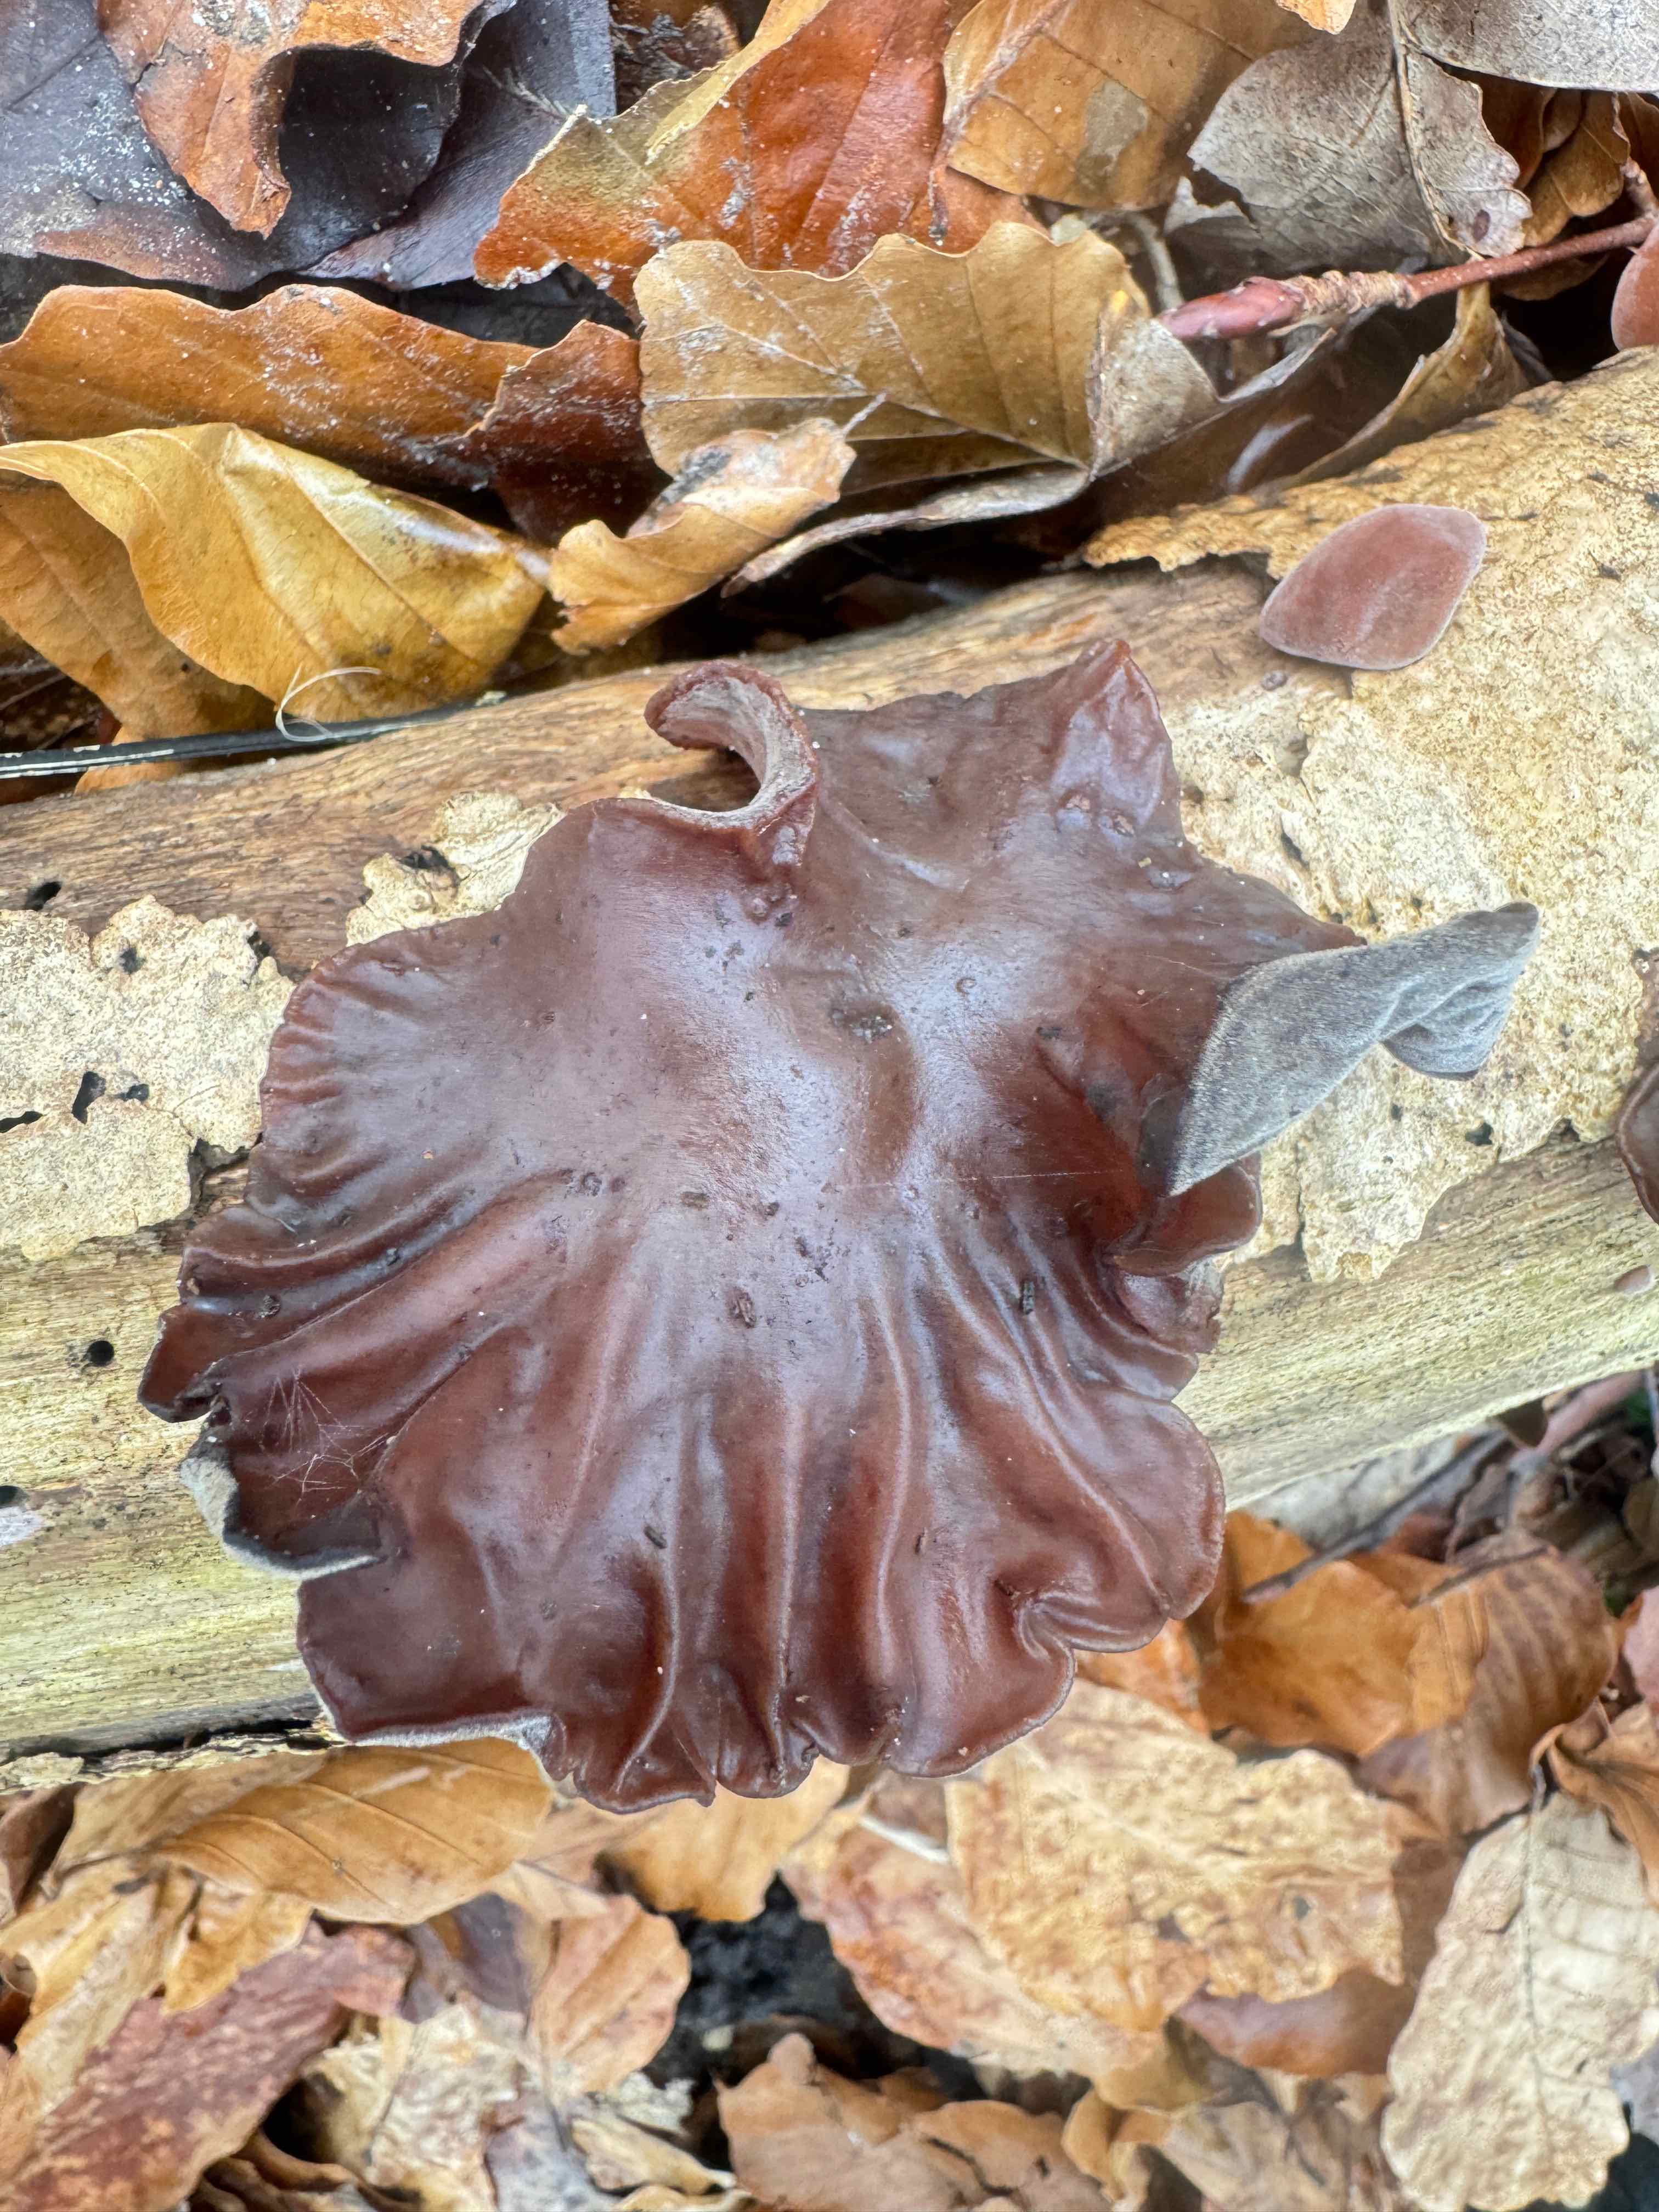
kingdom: Fungi
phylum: Basidiomycota
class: Agaricomycetes
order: Auriculariales
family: Auriculariaceae
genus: Auricularia
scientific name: Auricularia auricula-judae
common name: almindelig judasøre
